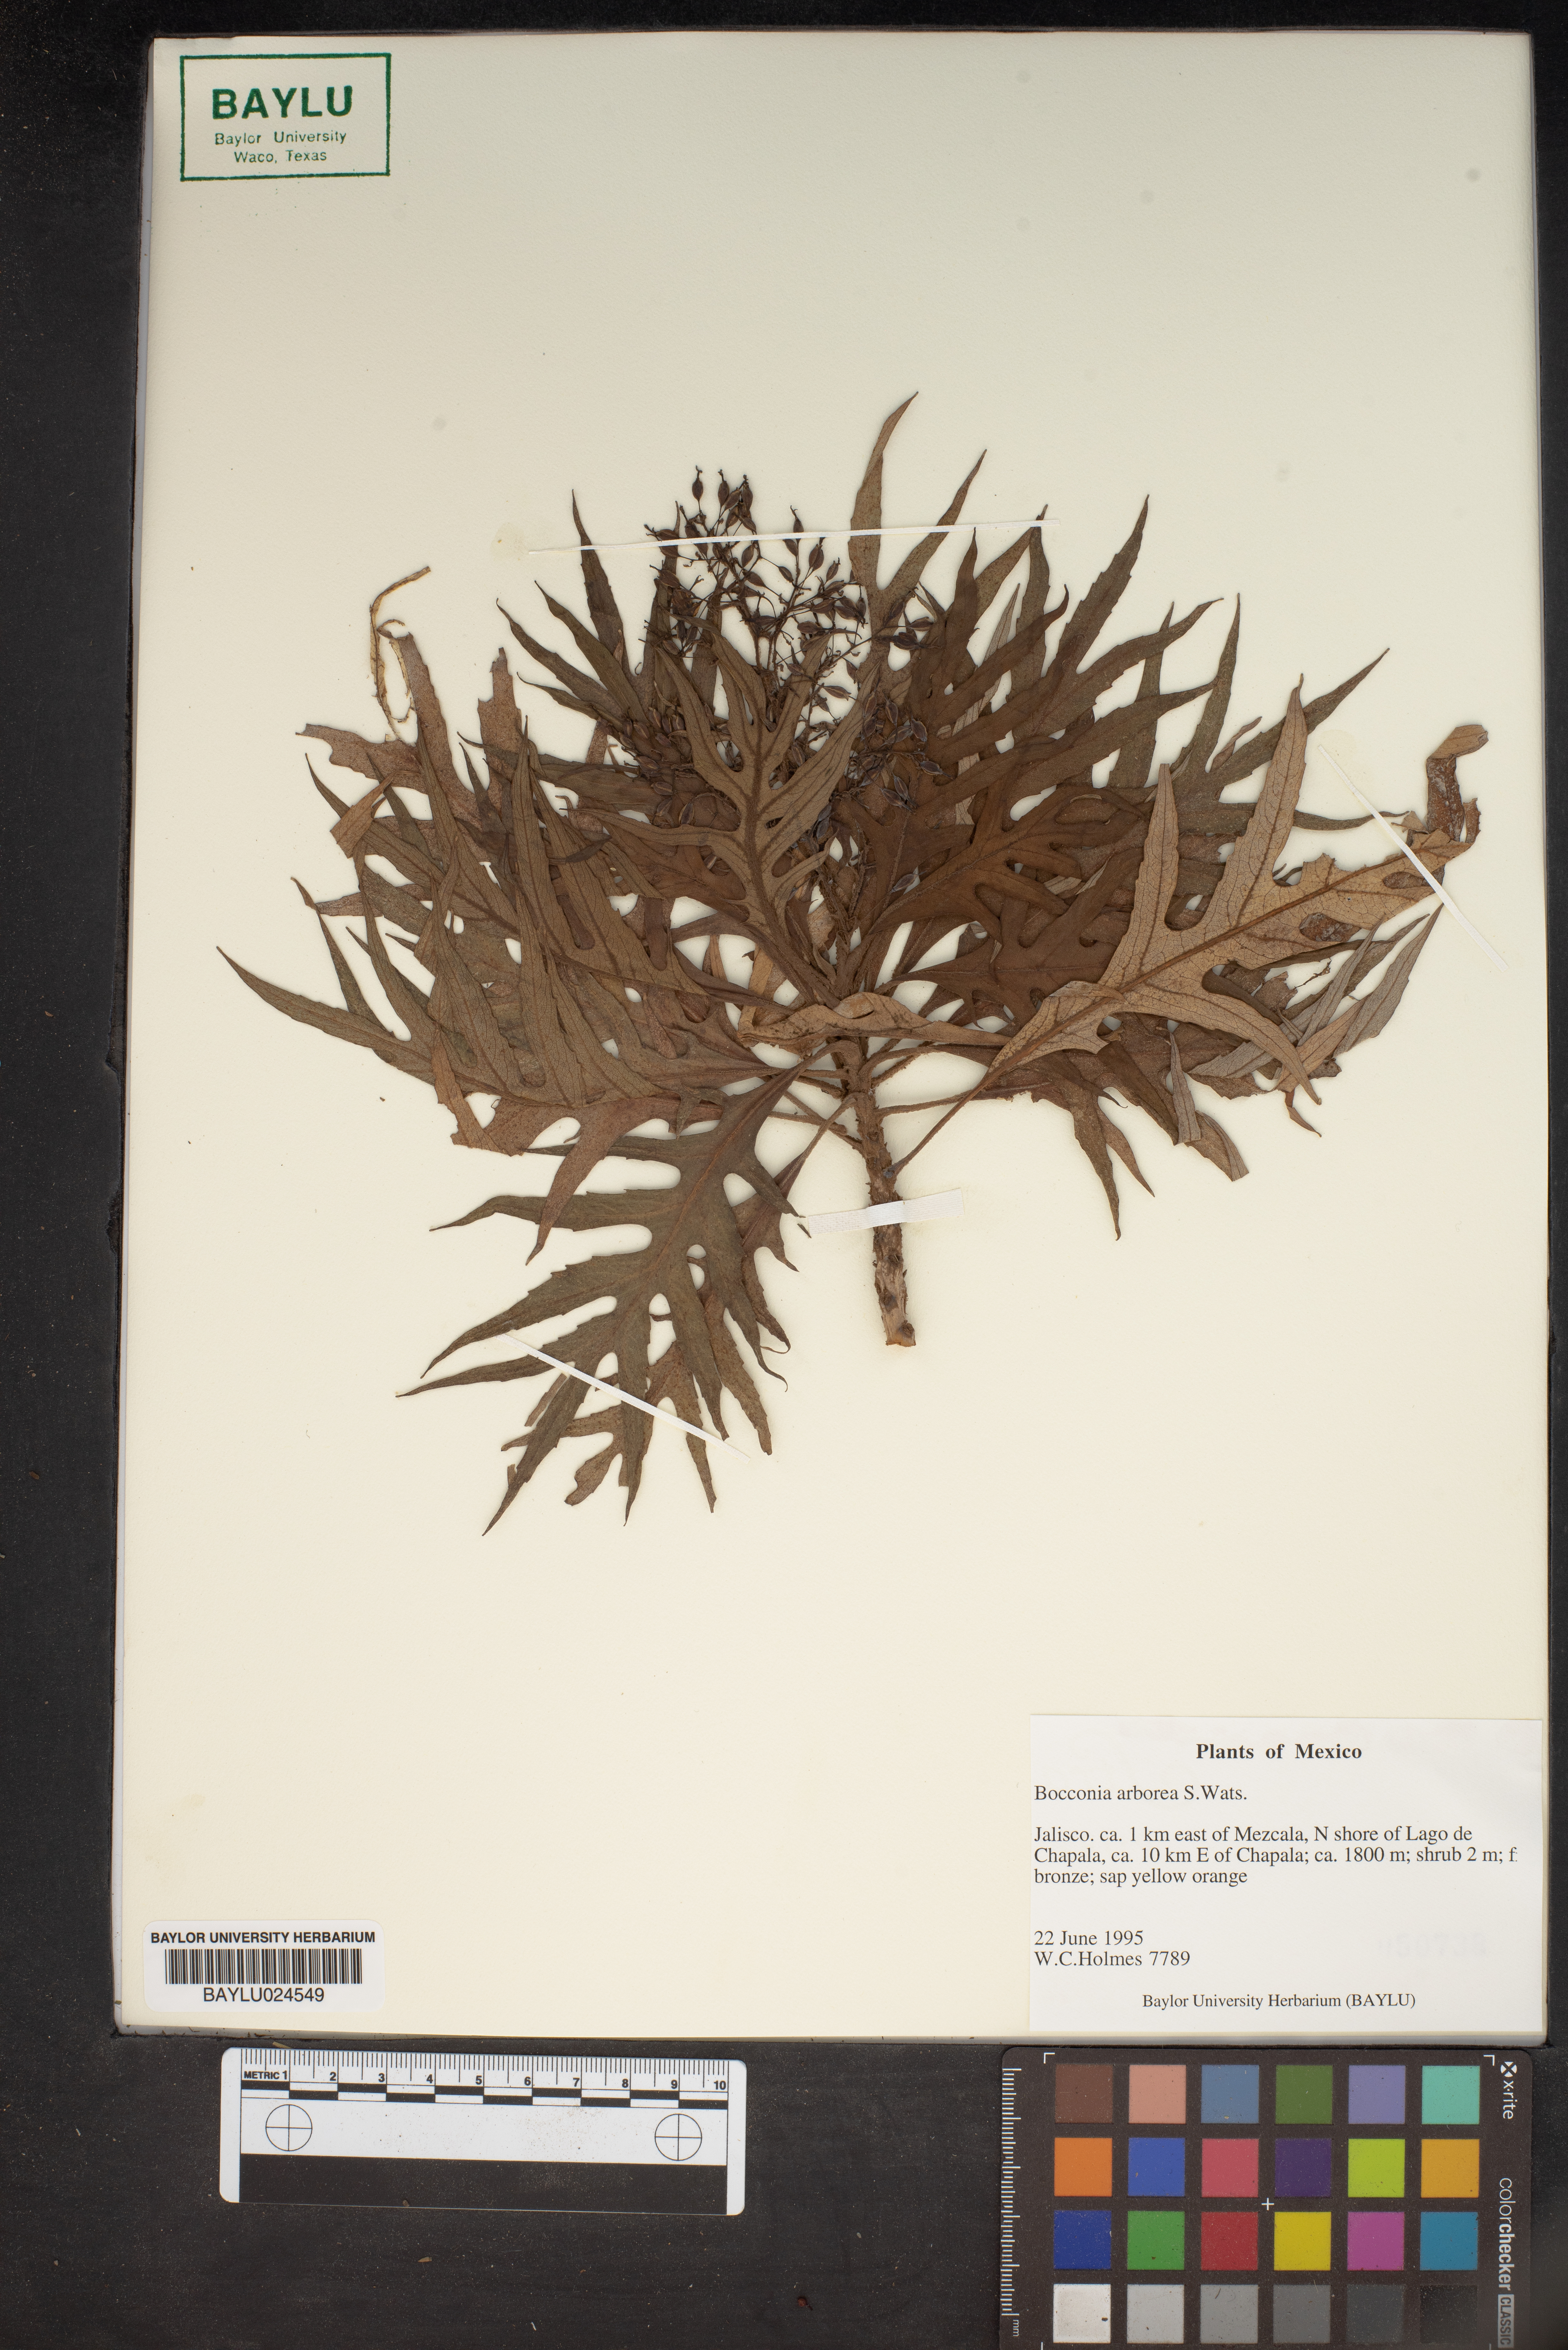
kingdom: Plantae
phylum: Tracheophyta
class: Magnoliopsida
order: Ranunculales
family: Papaveraceae
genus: Bocconia
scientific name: Bocconia arborea
